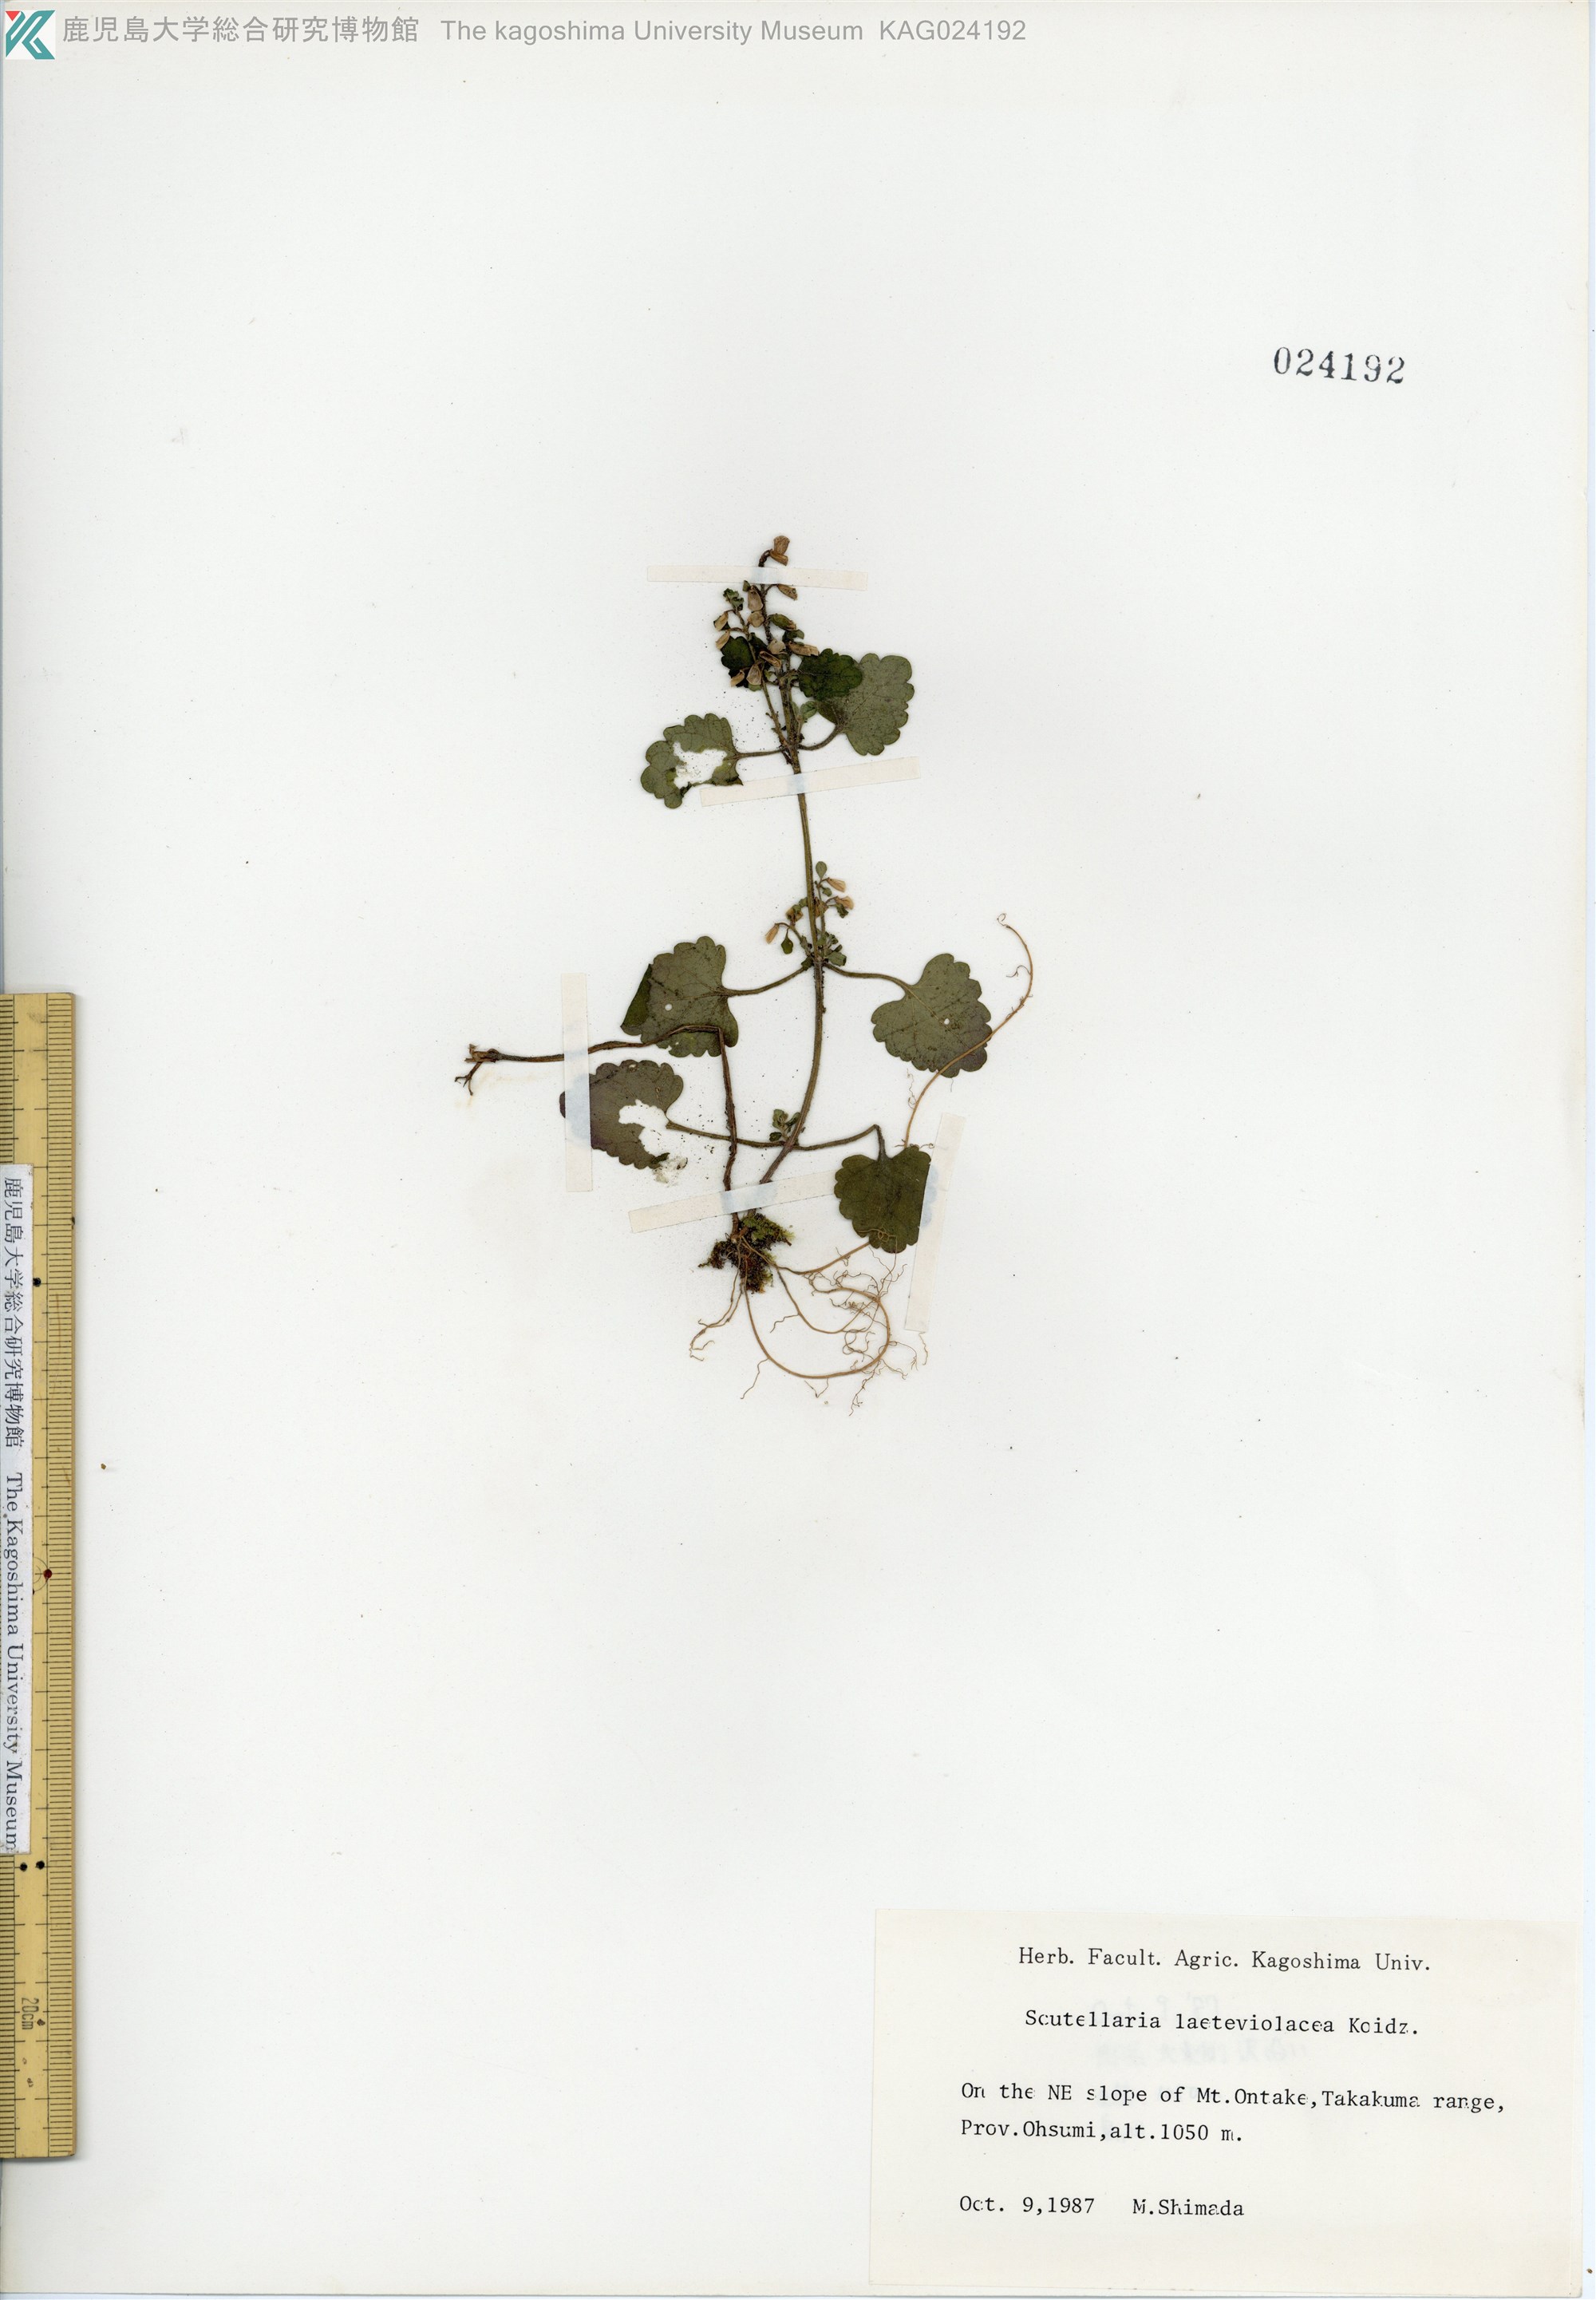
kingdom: Plantae
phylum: Tracheophyta
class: Magnoliopsida
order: Lamiales
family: Lamiaceae
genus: Scutellaria
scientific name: Scutellaria laeteviolacea
